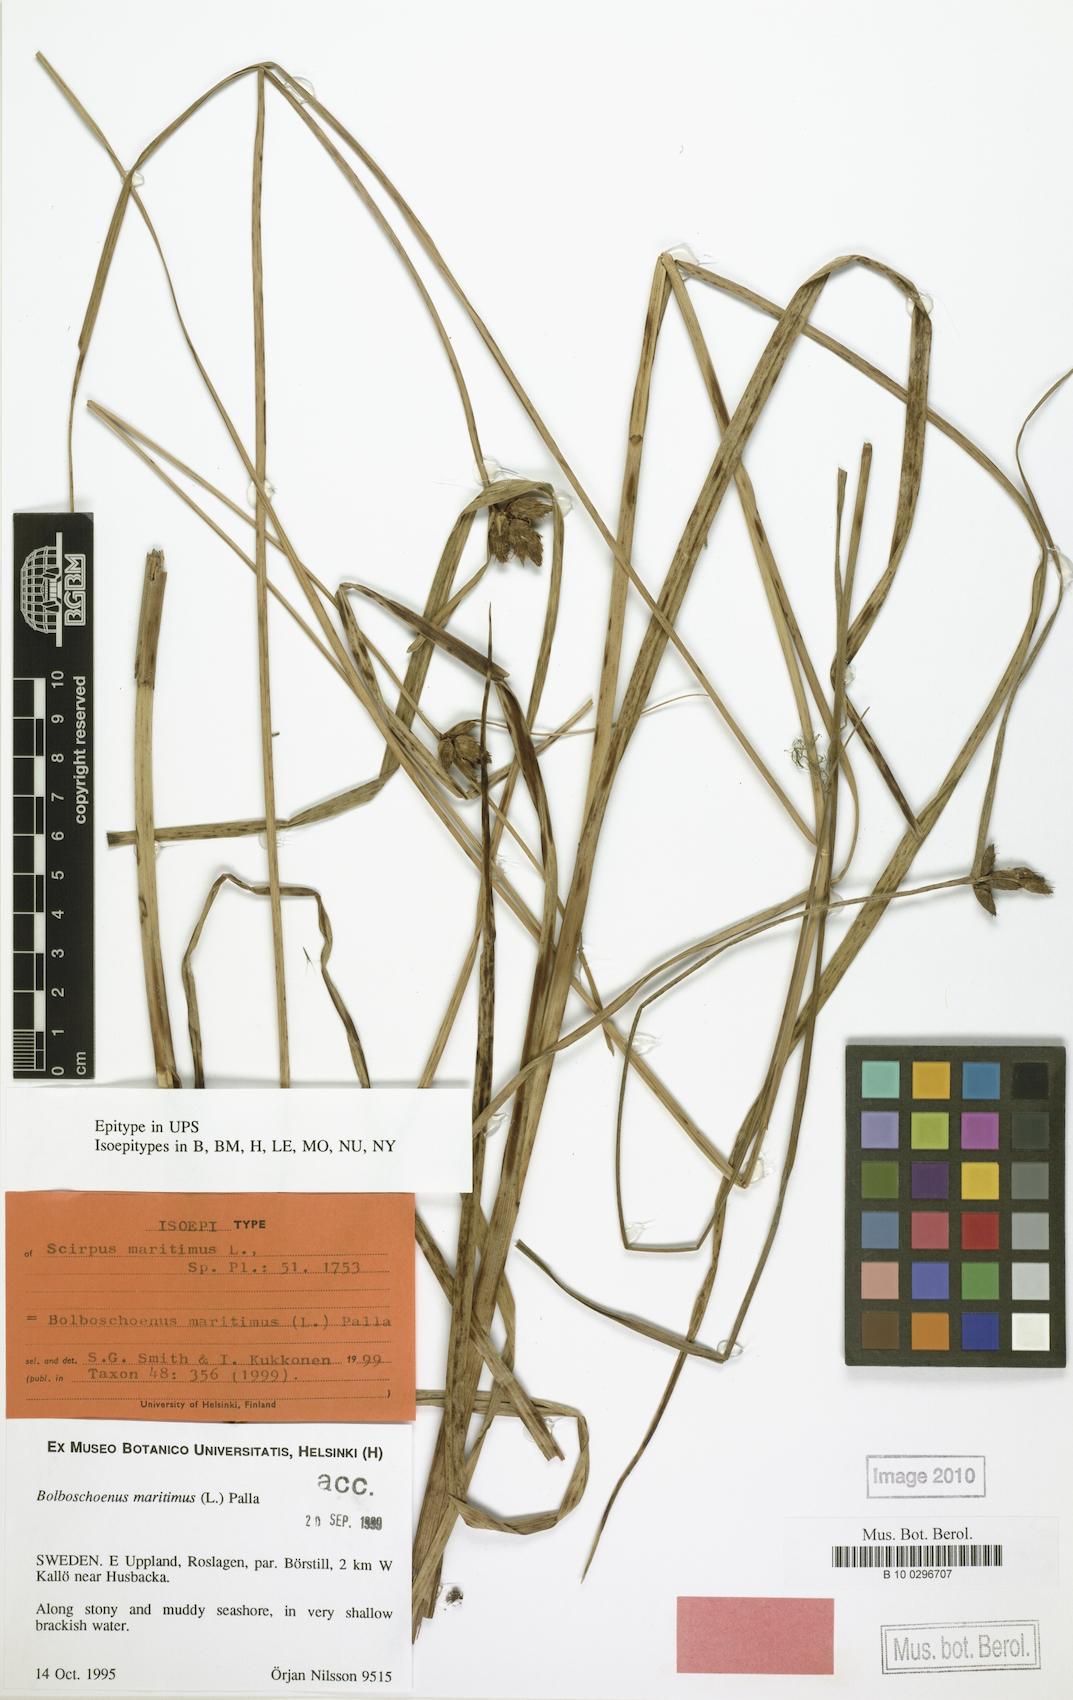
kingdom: Plantae
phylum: Tracheophyta
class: Liliopsida
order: Poales
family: Cyperaceae
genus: Bolboschoenus
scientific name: Bolboschoenus maritimus
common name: Sea club-rush
